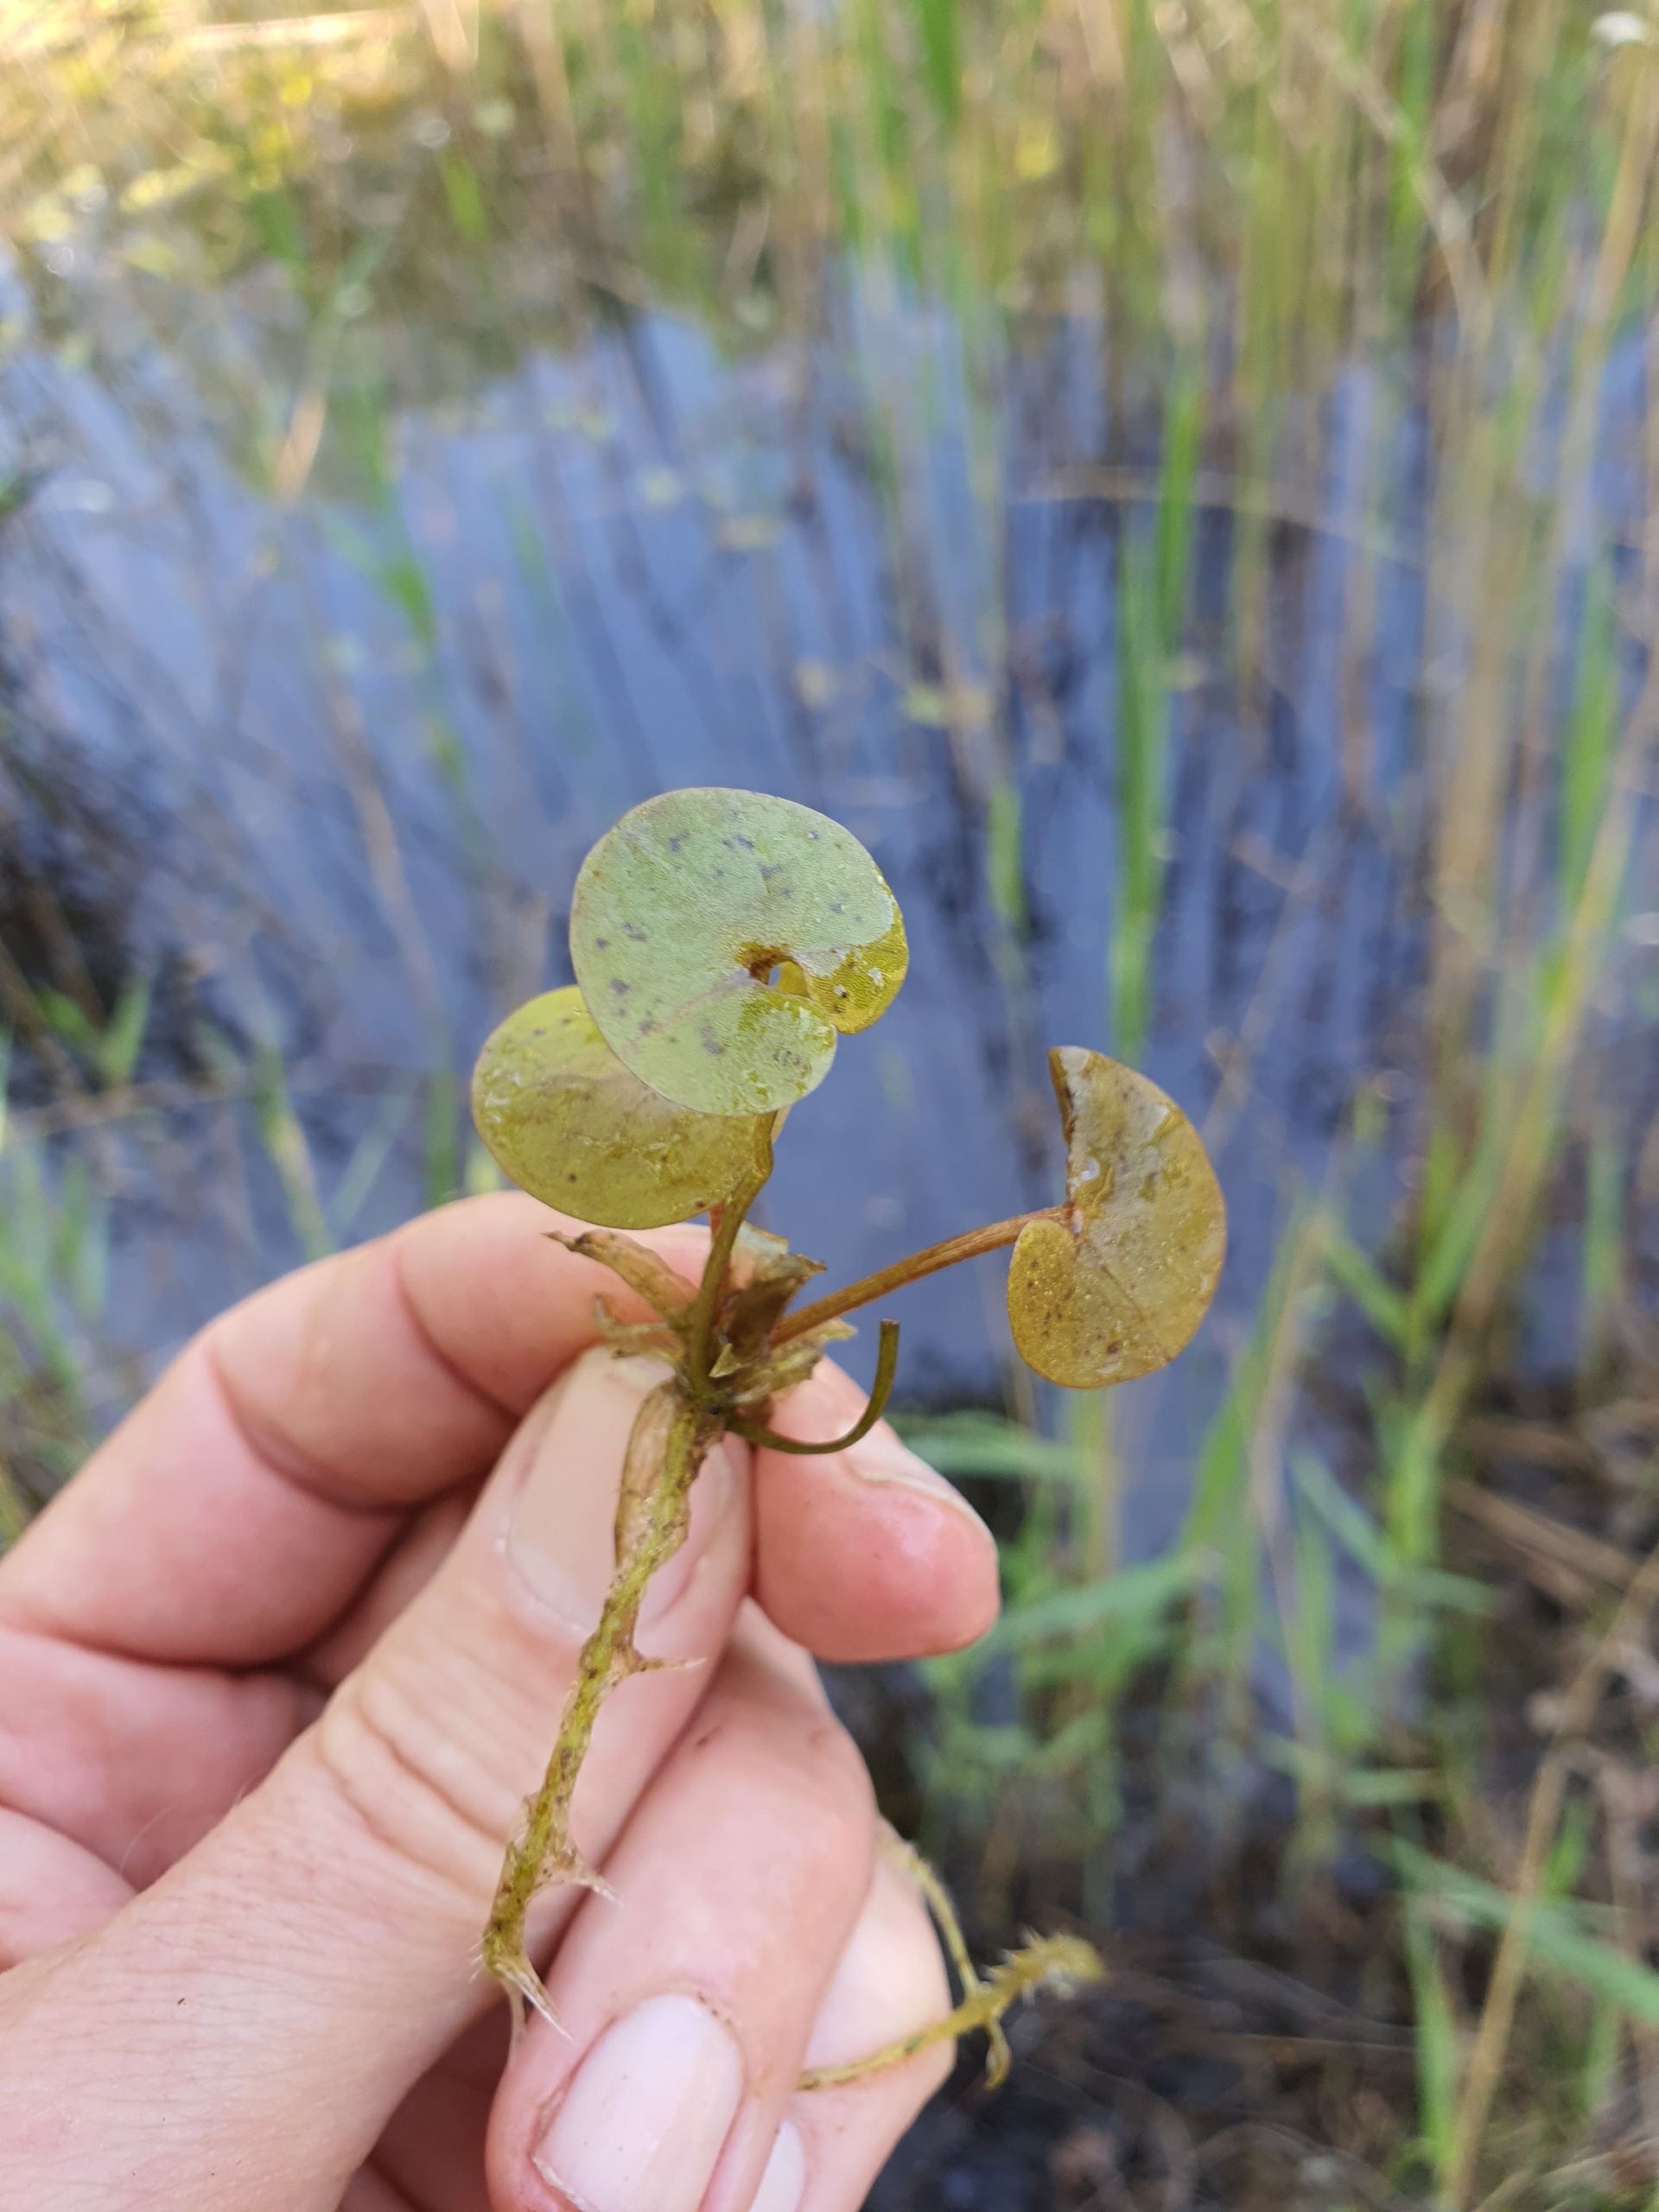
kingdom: Plantae
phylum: Tracheophyta
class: Liliopsida
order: Alismatales
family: Hydrocharitaceae
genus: Hydrocharis
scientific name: Hydrocharis morsus-ranae
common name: Frøbid
